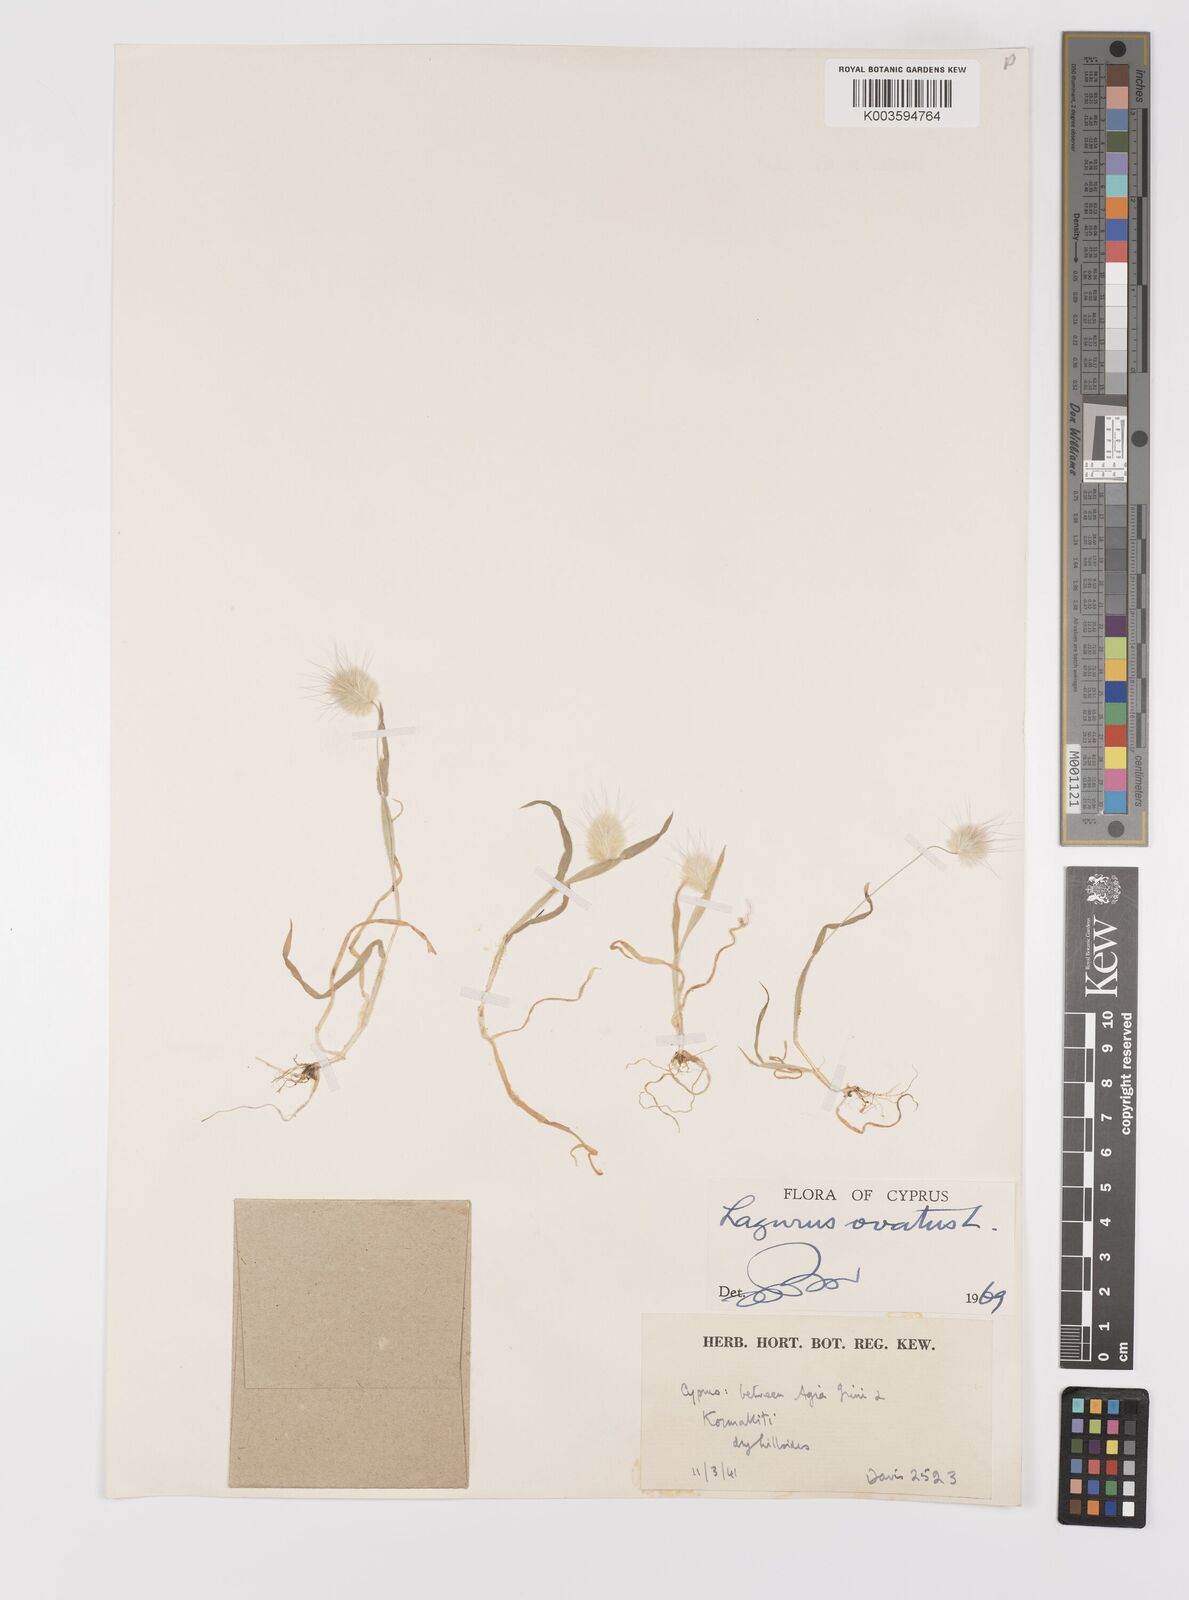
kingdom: Plantae
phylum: Tracheophyta
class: Liliopsida
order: Poales
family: Poaceae
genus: Lagurus
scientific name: Lagurus ovatus
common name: Hare's-tail
